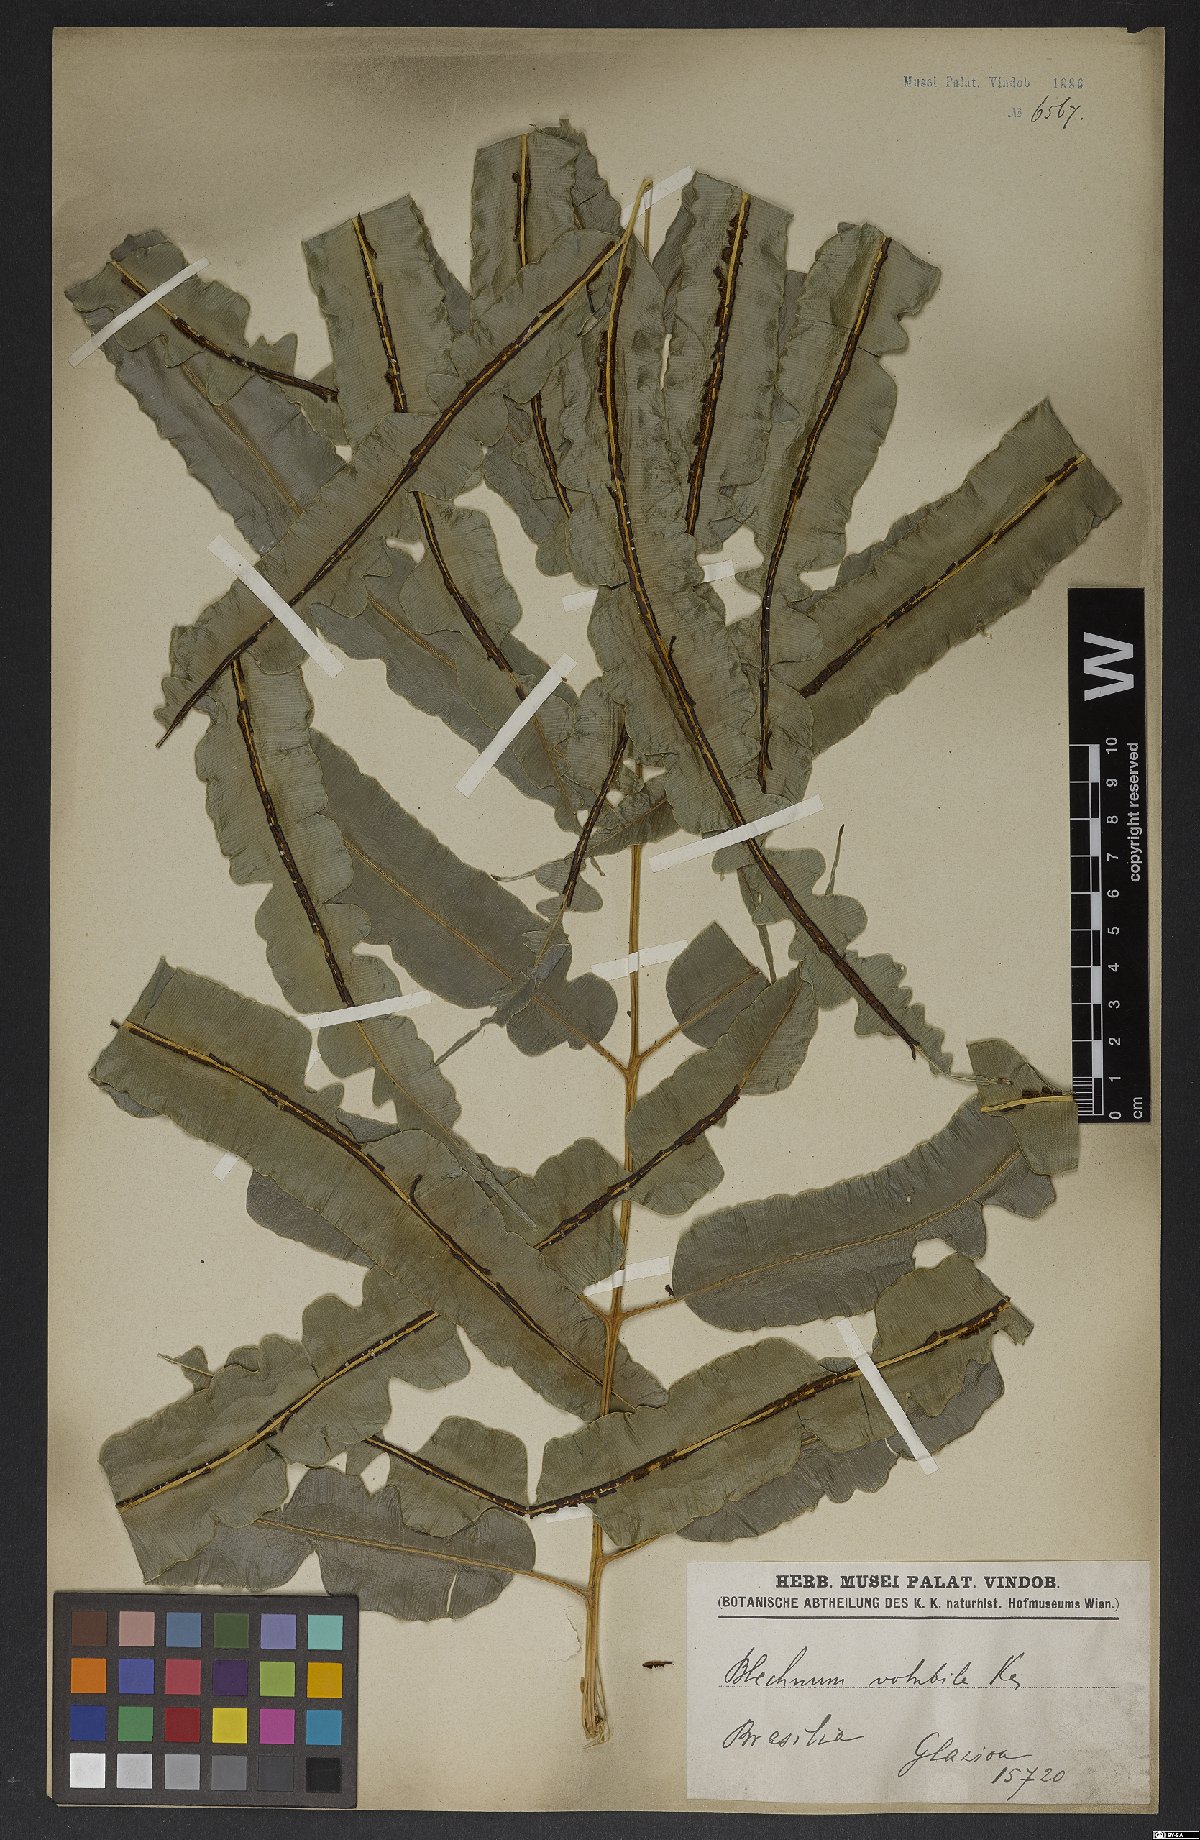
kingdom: Plantae
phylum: Tracheophyta
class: Polypodiopsida
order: Polypodiales
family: Blechnaceae
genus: Salpichlaena
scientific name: Salpichlaena volubilis
